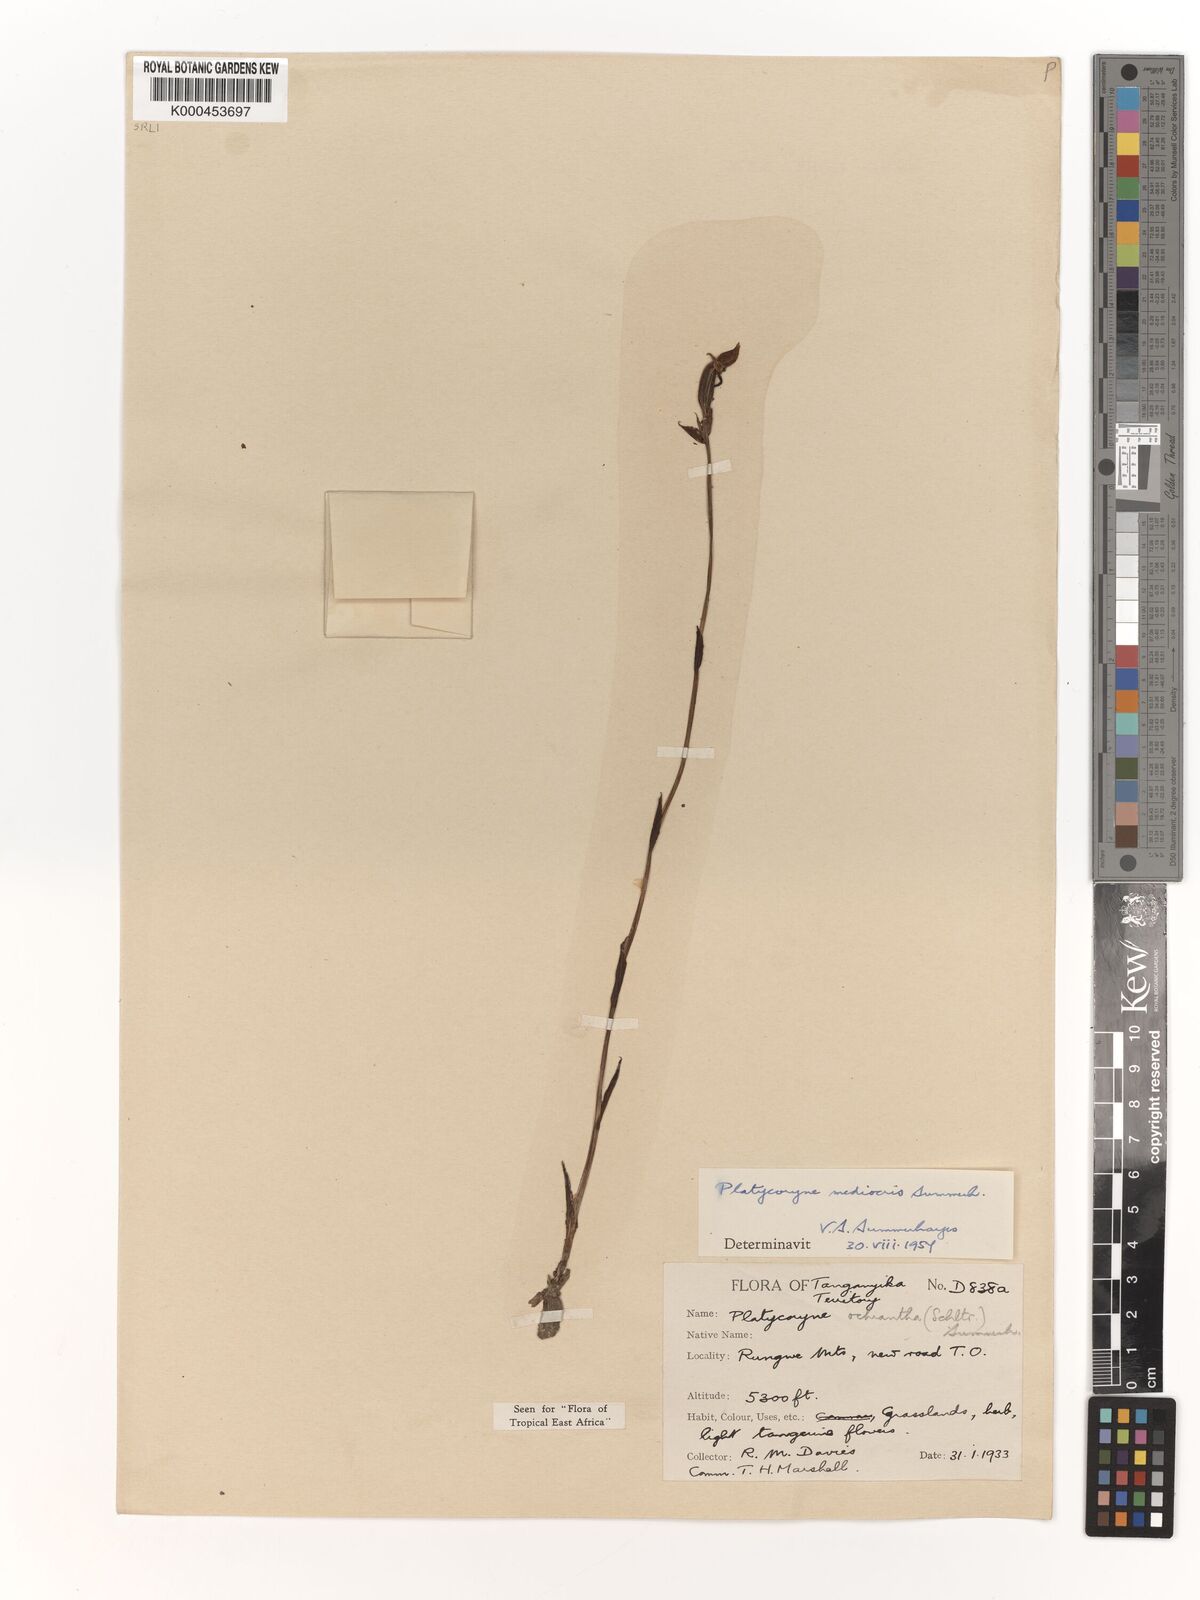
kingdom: Plantae
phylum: Tracheophyta
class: Liliopsida
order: Asparagales
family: Orchidaceae
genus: Platycoryne
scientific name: Platycoryne mediocris
